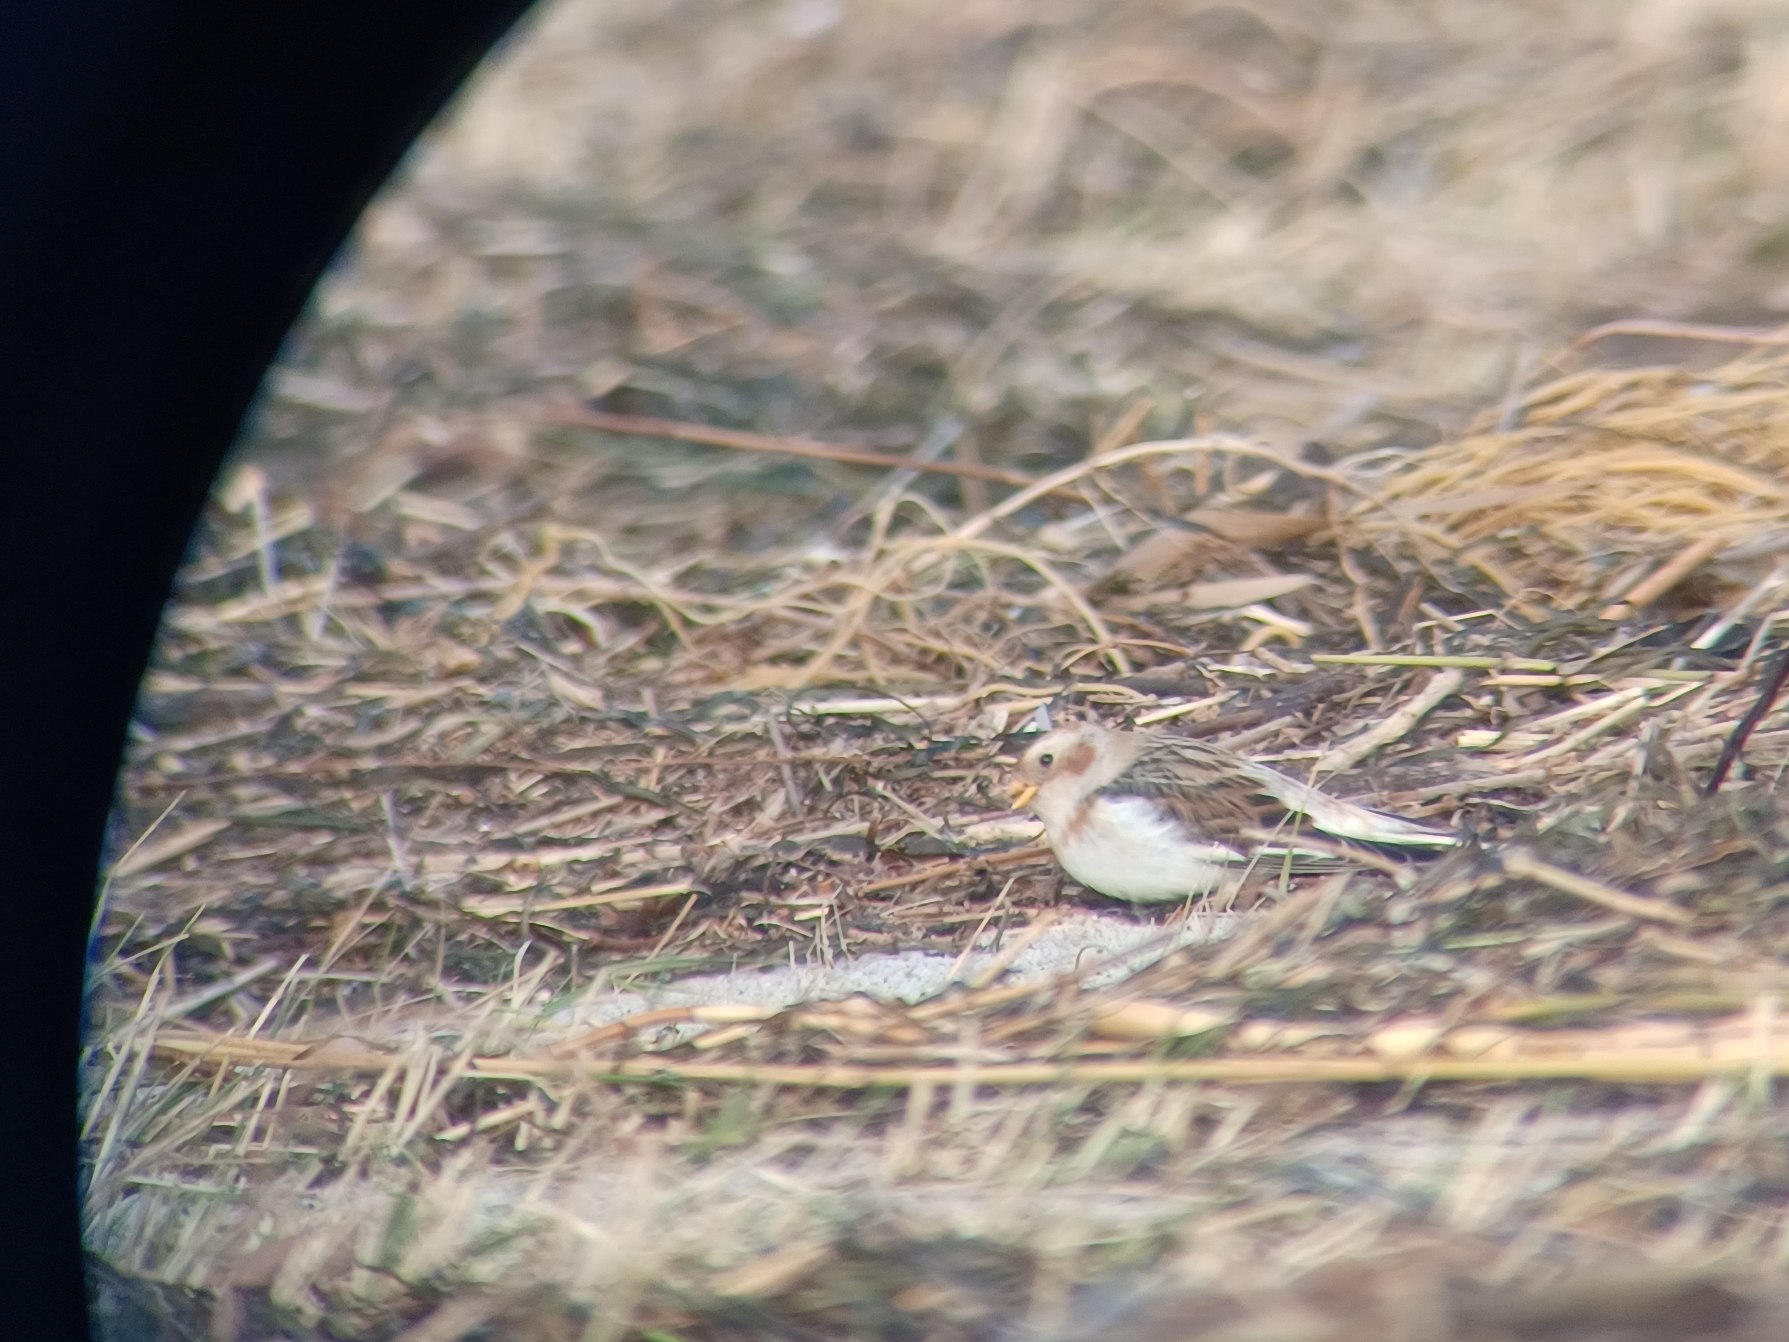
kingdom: Animalia
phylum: Chordata
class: Aves
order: Passeriformes
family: Calcariidae
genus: Plectrophenax
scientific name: Plectrophenax nivalis
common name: Snespurv
